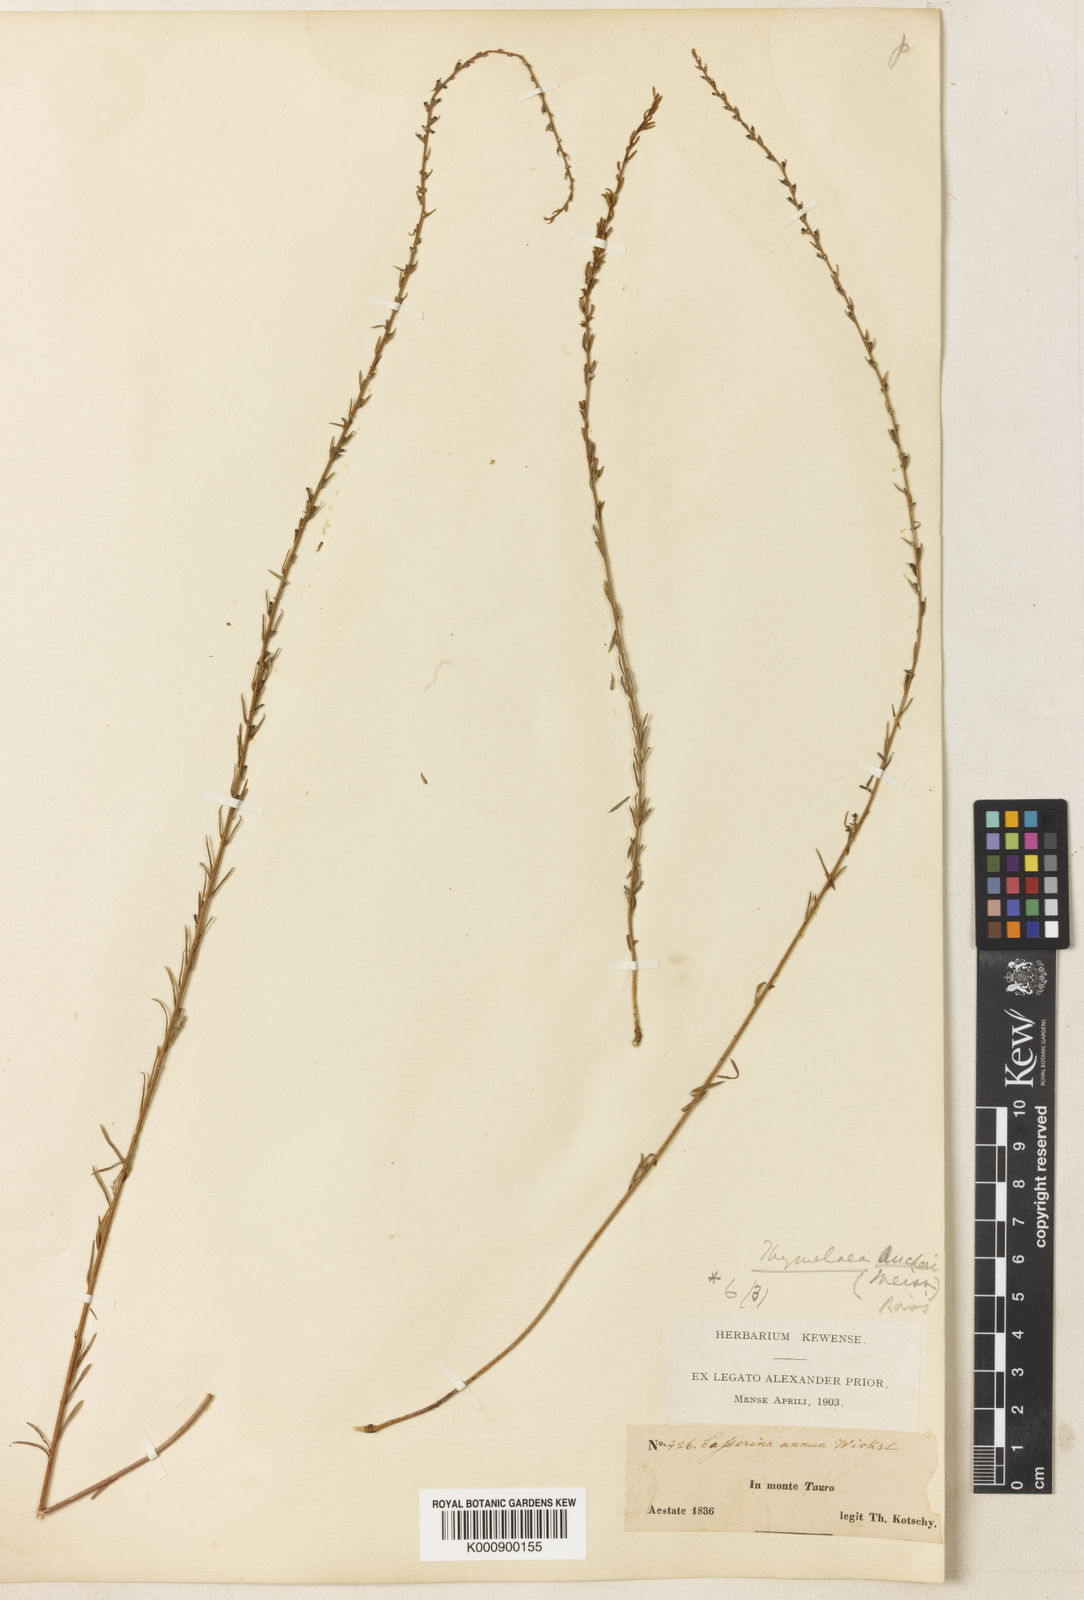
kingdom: Plantae
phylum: Tracheophyta
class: Magnoliopsida
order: Malvales
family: Thymelaeaceae
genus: Wikstroemia
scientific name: Wikstroemia
